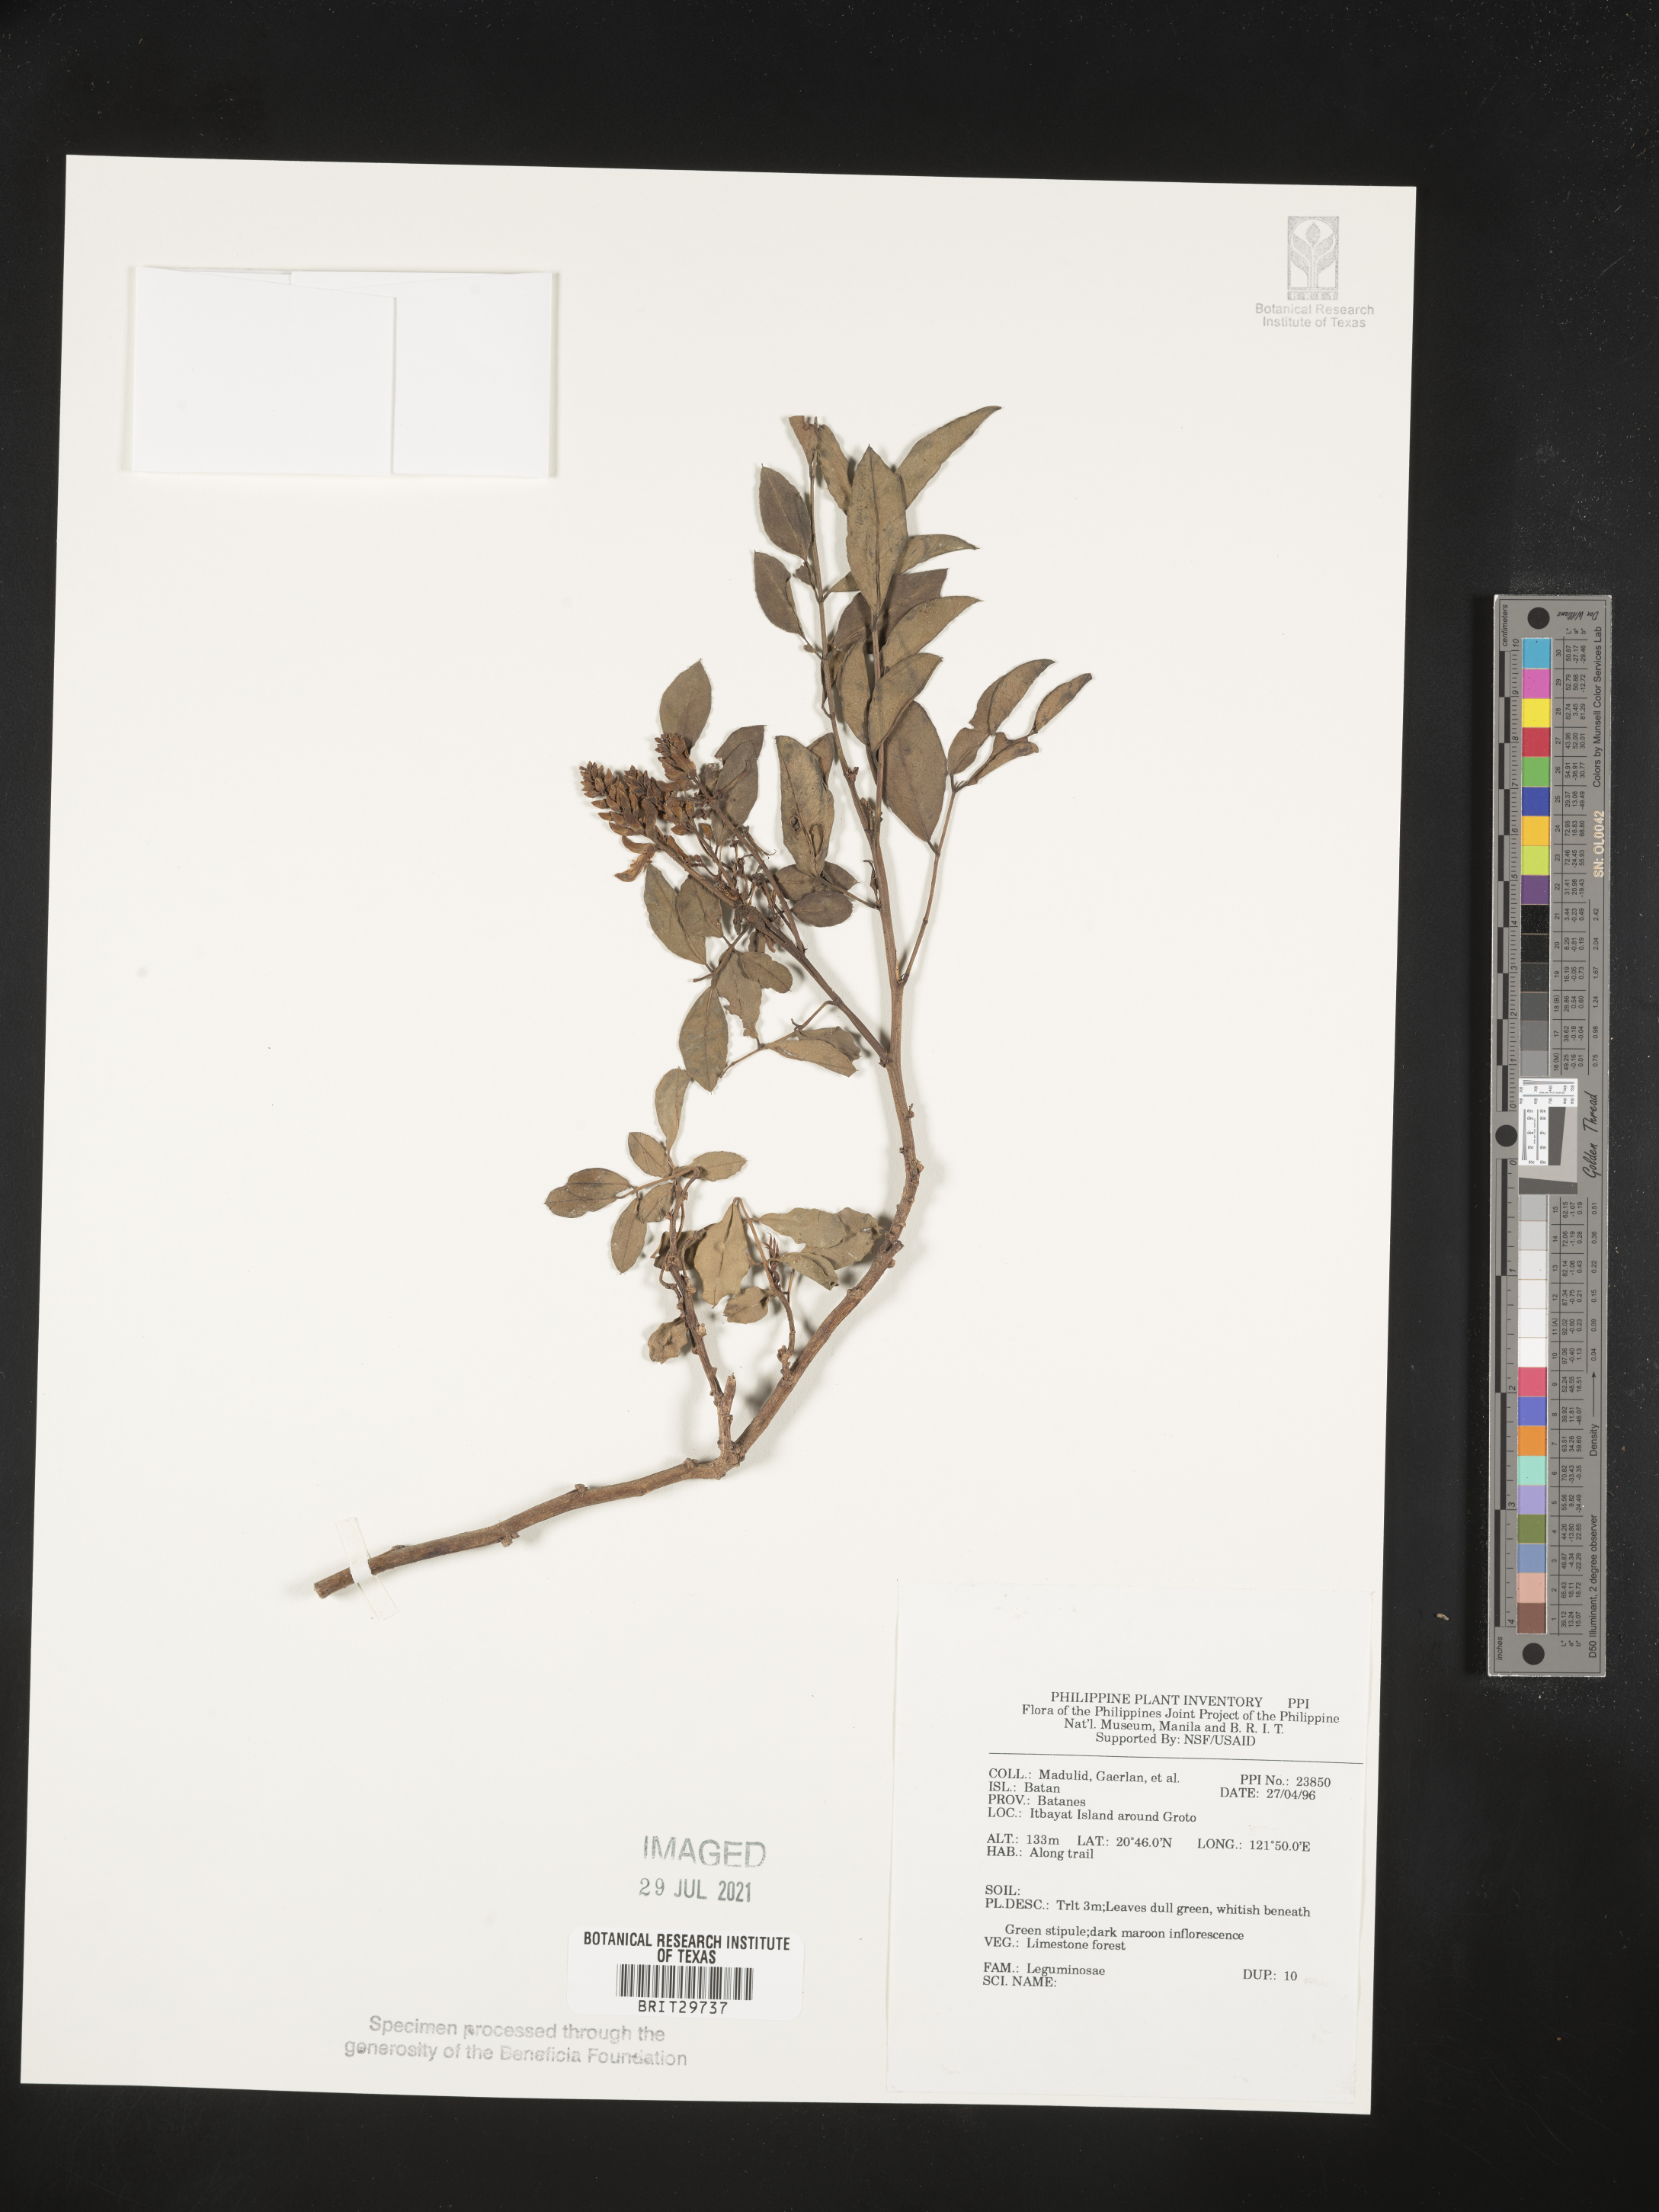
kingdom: Plantae
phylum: Tracheophyta
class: Magnoliopsida
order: Fabales
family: Fabaceae
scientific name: Fabaceae
